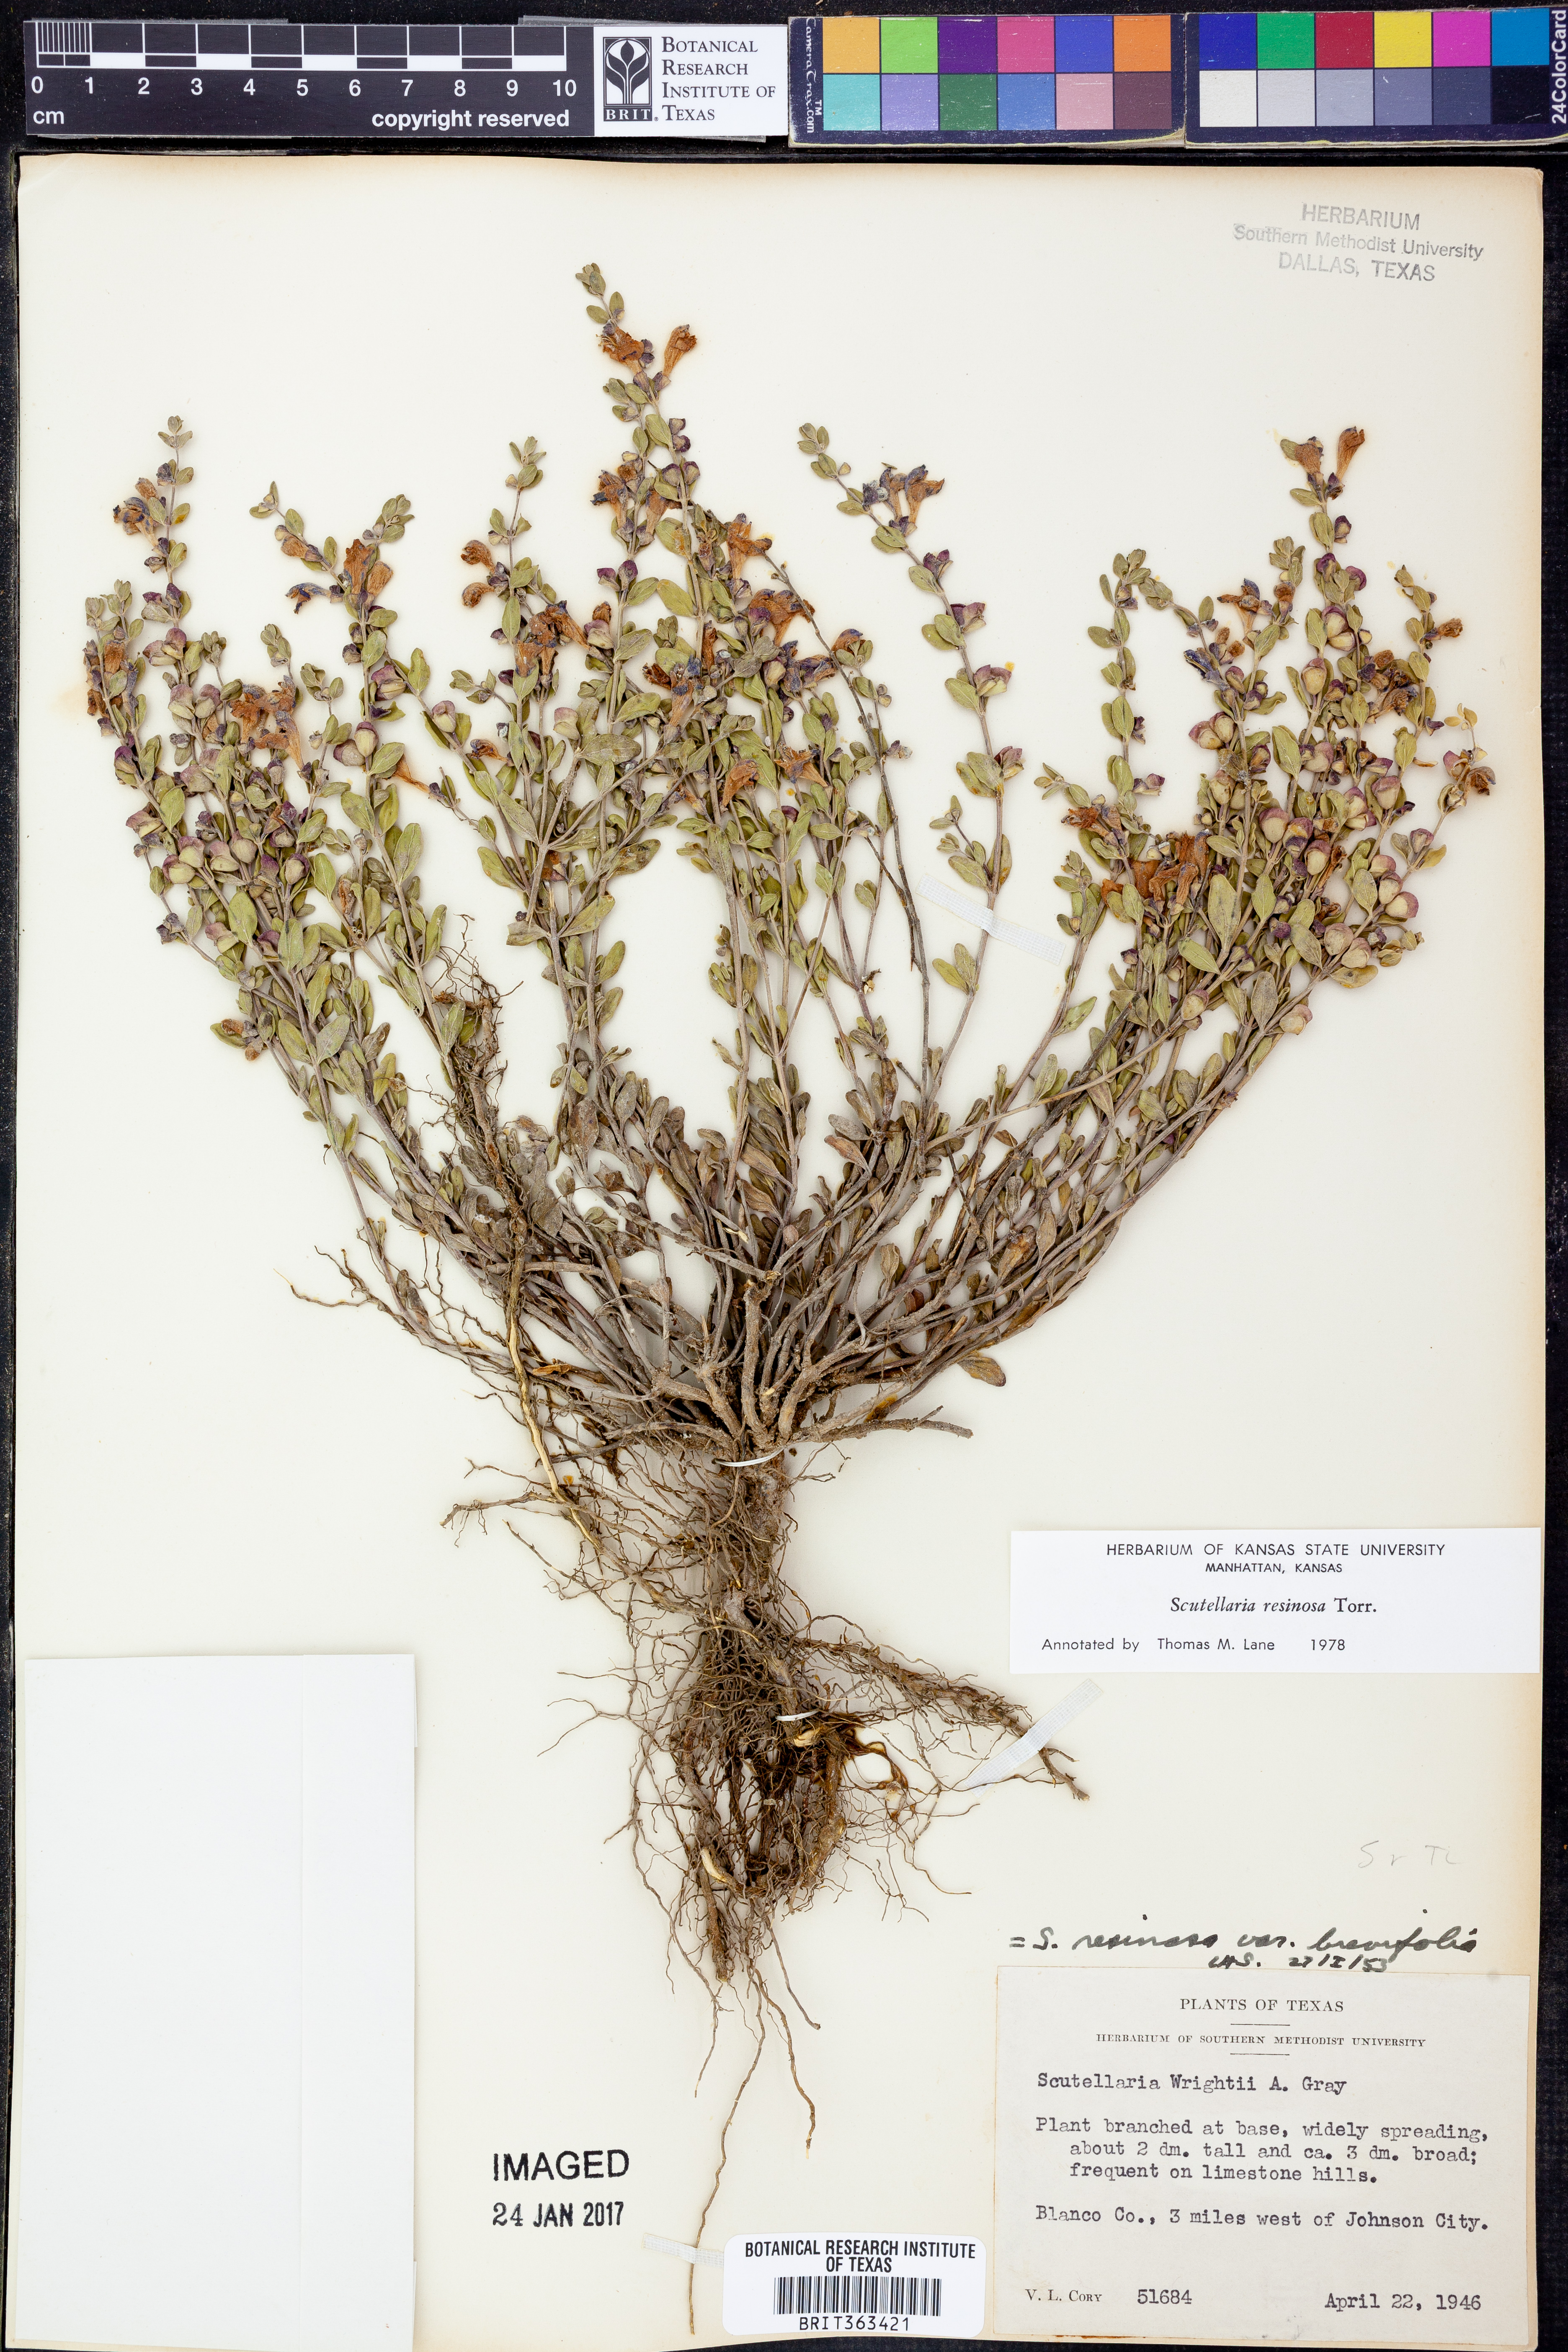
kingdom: Plantae
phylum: Tracheophyta
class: Magnoliopsida
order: Lamiales
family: Lamiaceae
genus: Scutellaria
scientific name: Scutellaria resinosa
